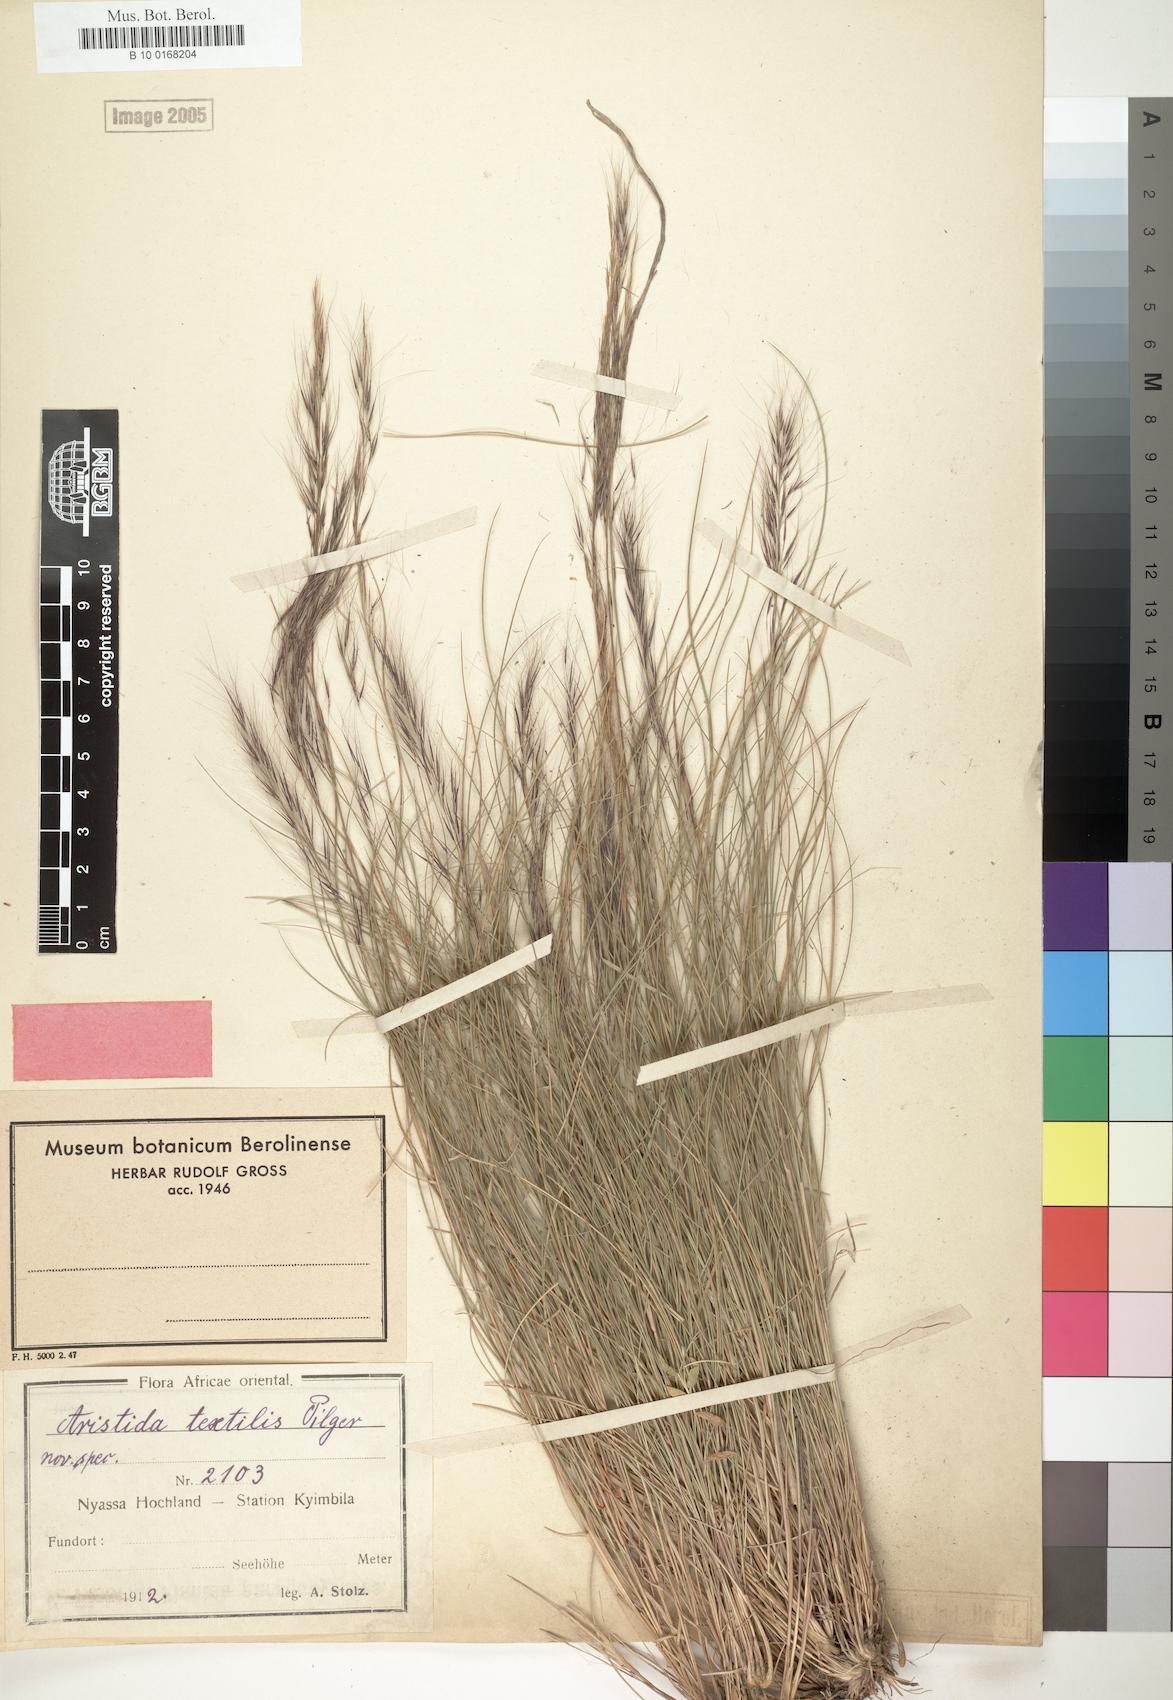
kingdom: Plantae
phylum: Tracheophyta
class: Liliopsida
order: Poales
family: Poaceae
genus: Aristida
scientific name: Aristida junciformis
